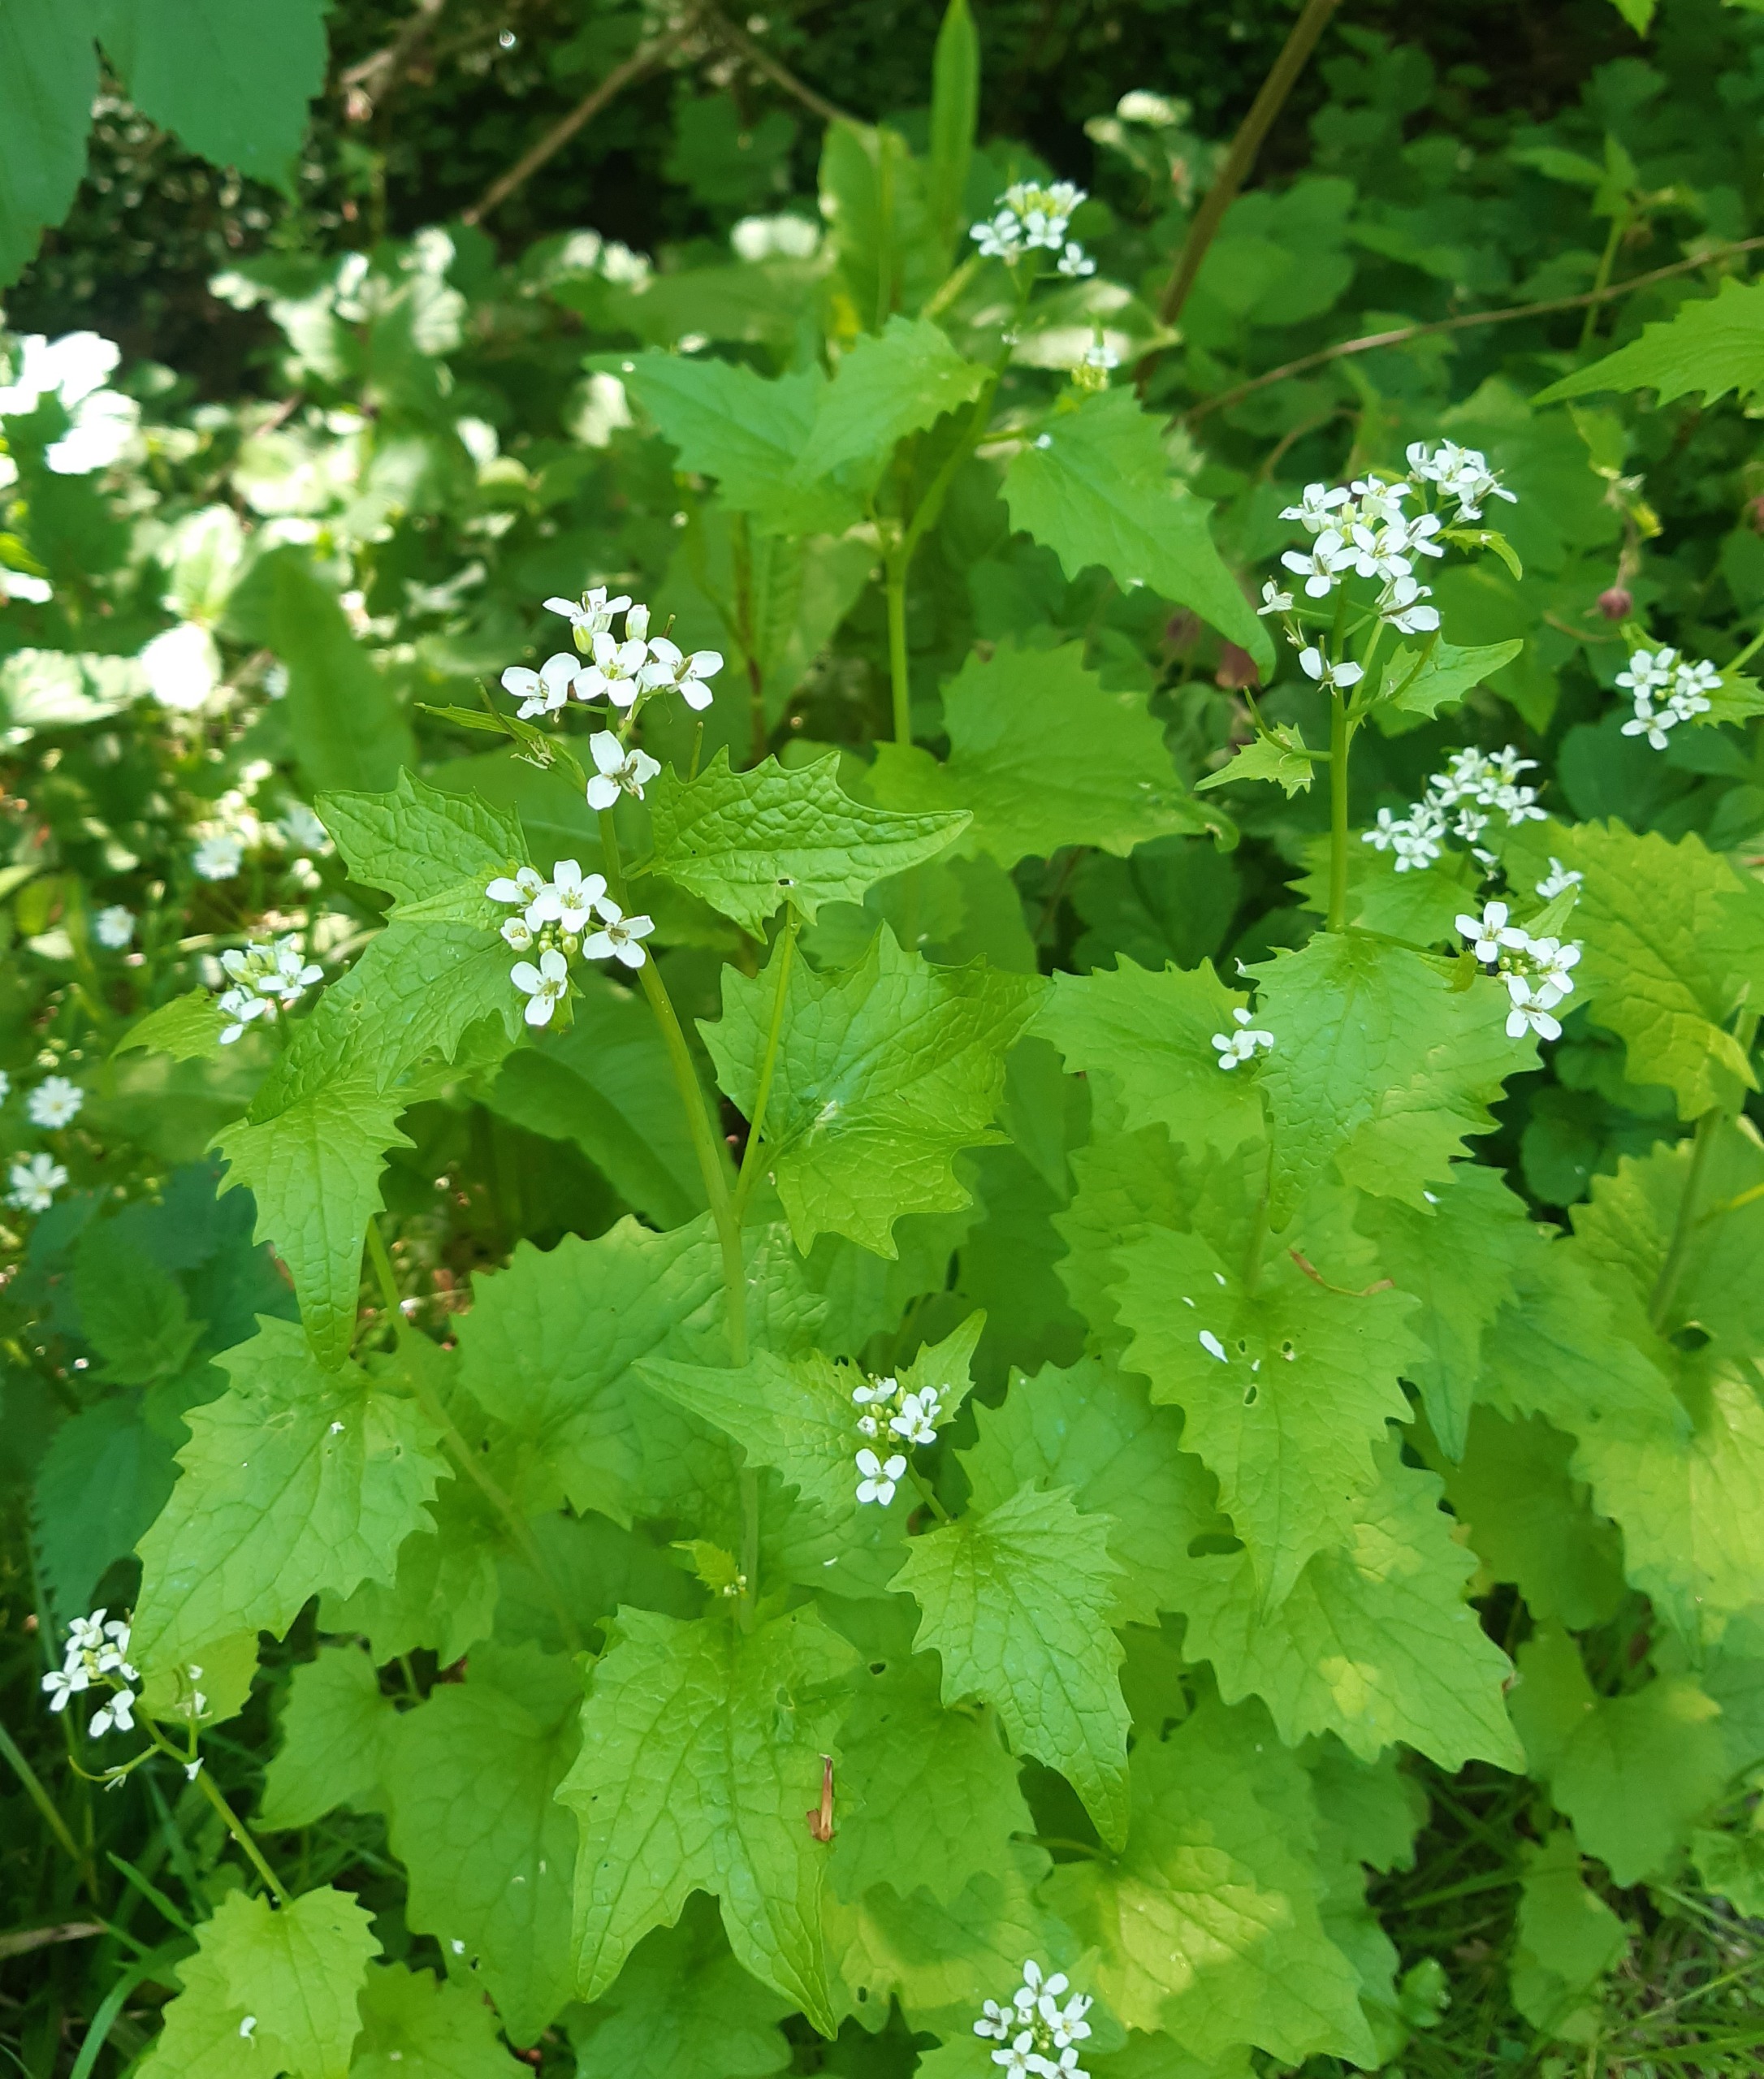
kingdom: Plantae
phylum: Tracheophyta
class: Magnoliopsida
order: Brassicales
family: Brassicaceae
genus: Alliaria
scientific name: Alliaria petiolata
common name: Løgkarse
